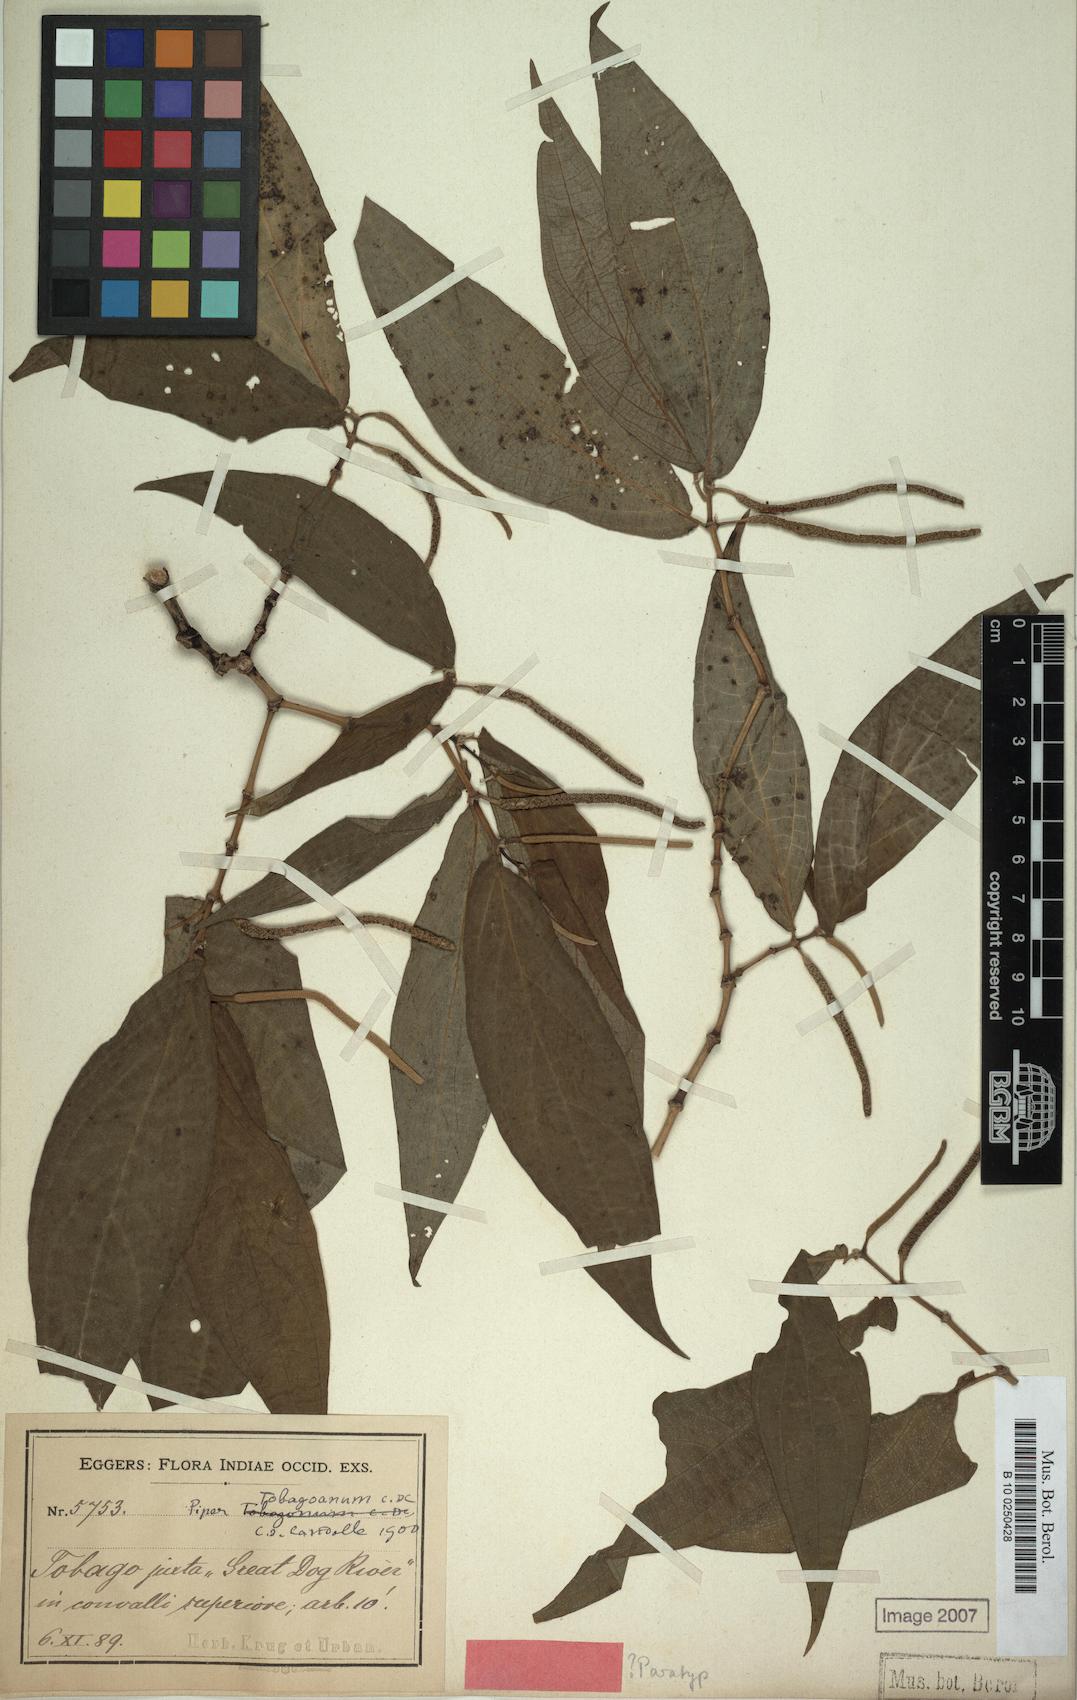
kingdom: Plantae
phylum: Tracheophyta
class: Magnoliopsida
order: Piperales
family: Piperaceae
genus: Piper
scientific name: Piper dilatatum
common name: Higuillo
